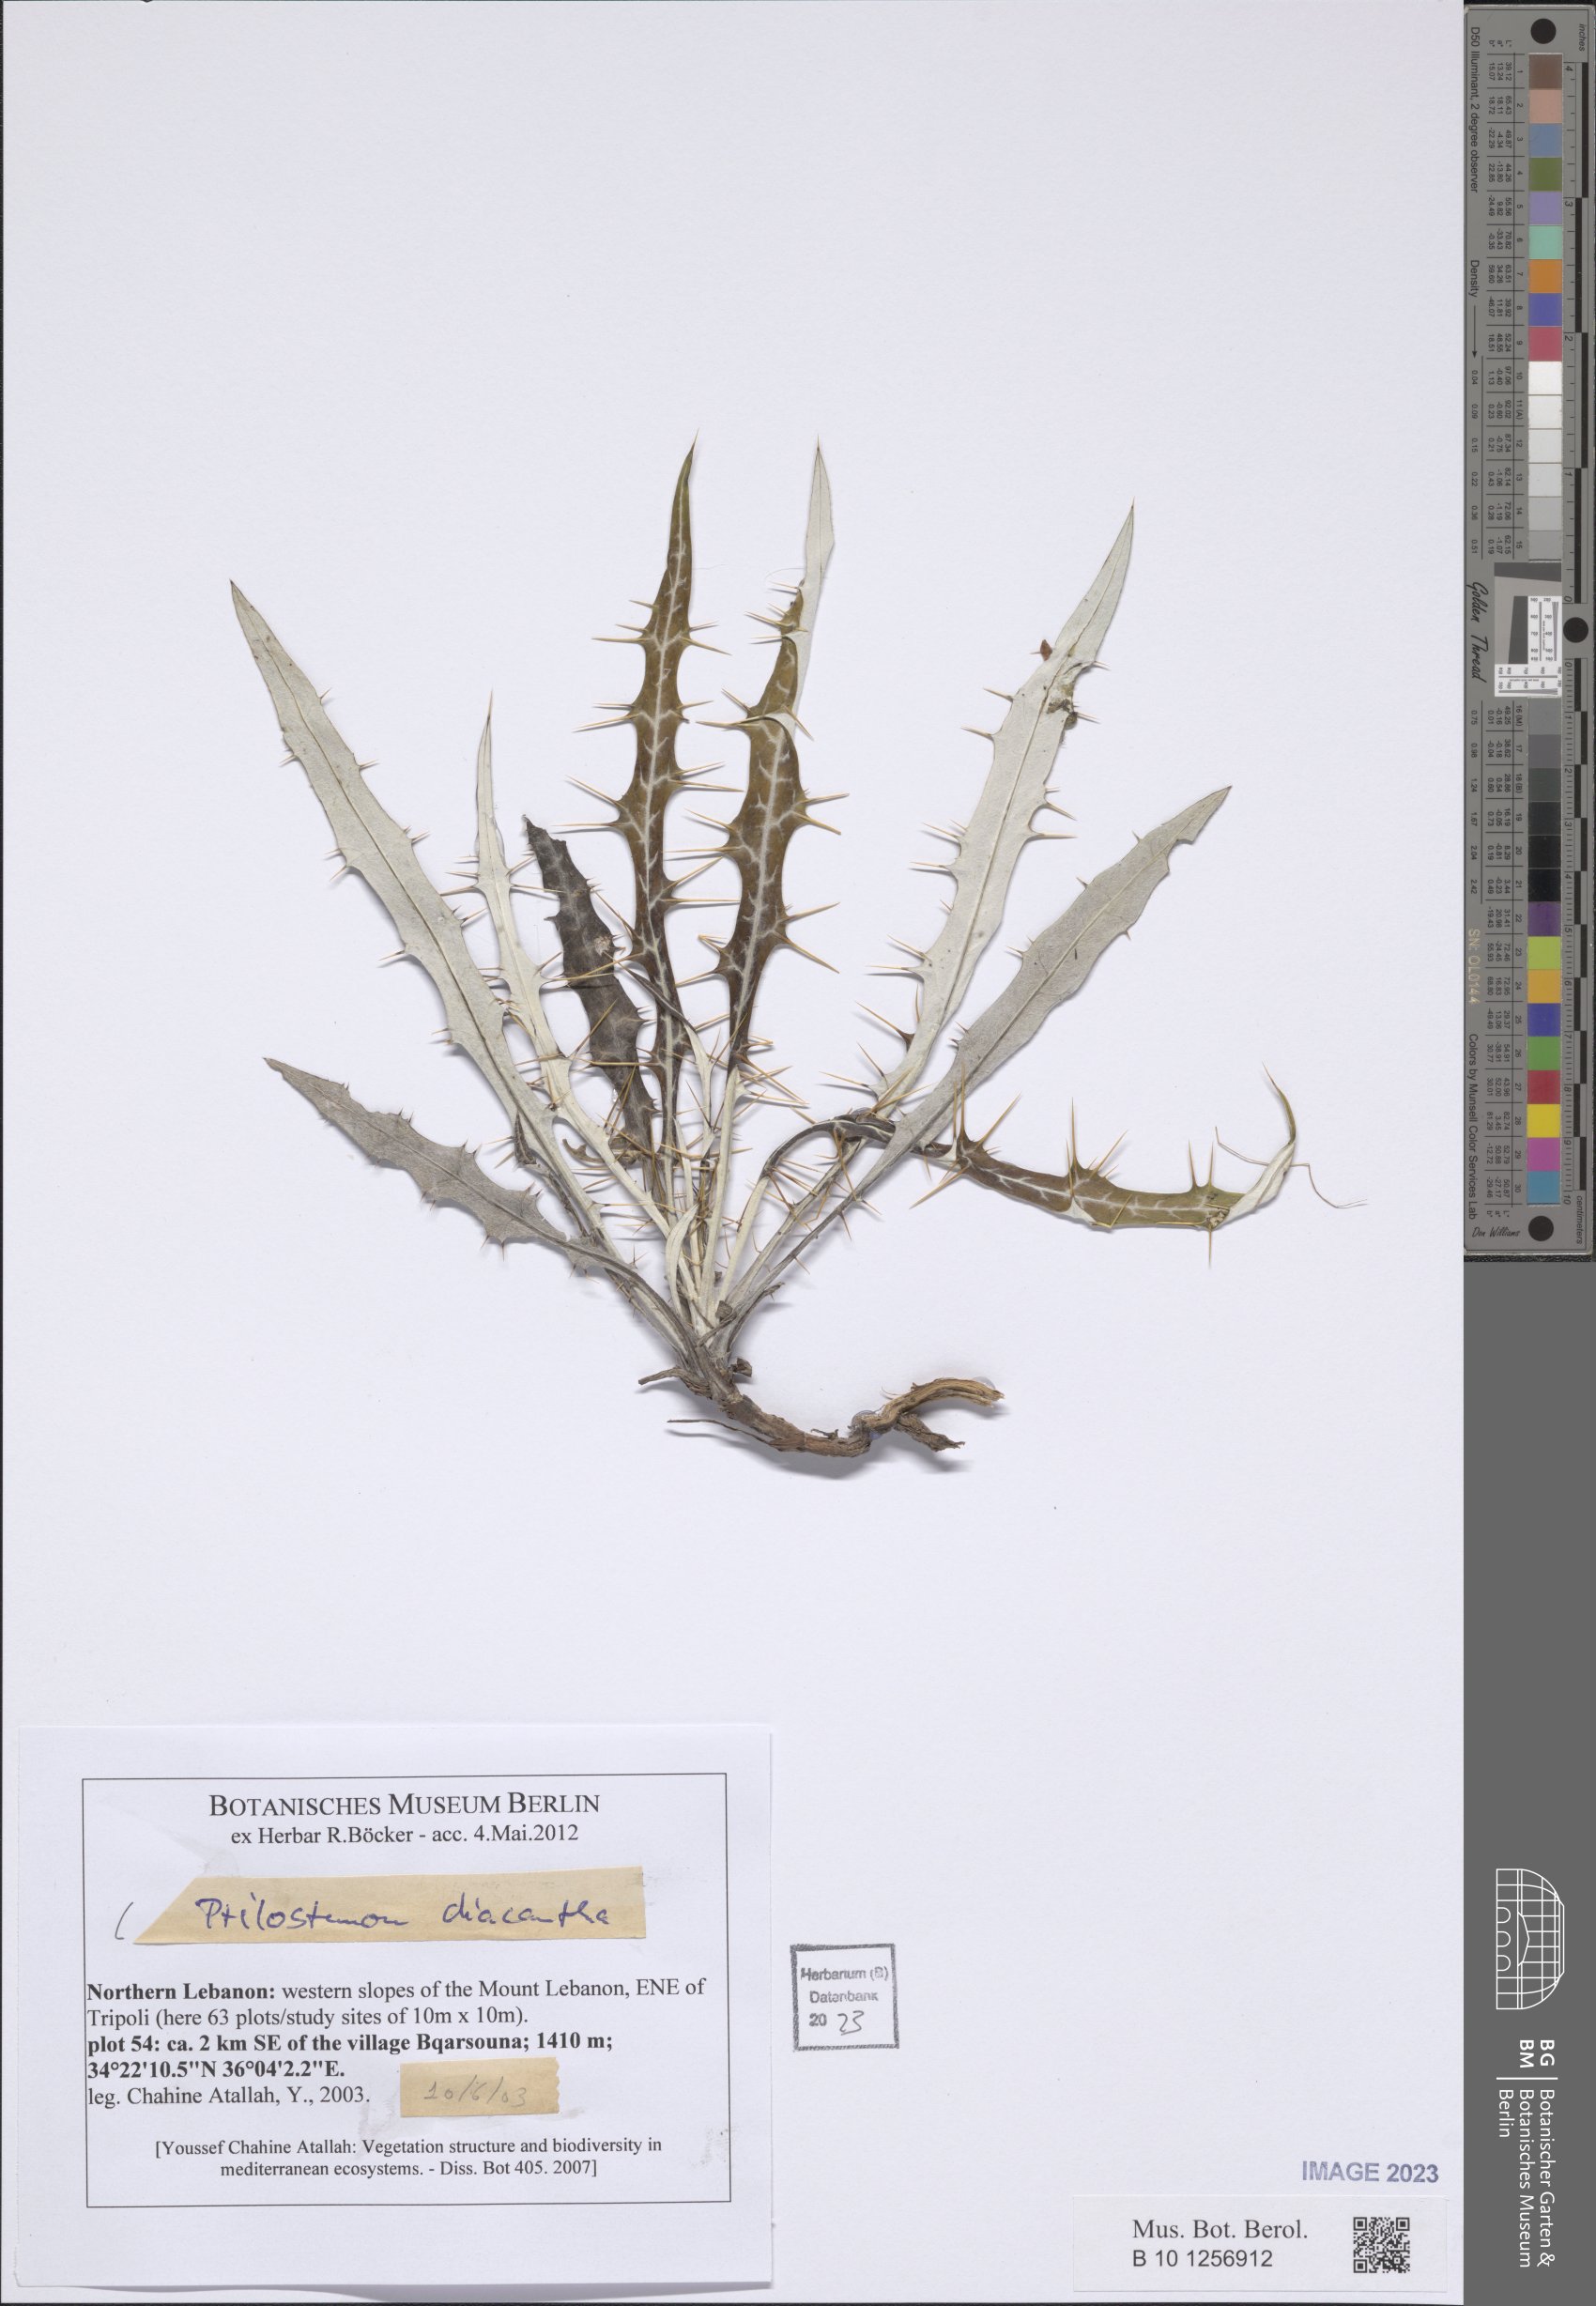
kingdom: Plantae
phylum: Tracheophyta
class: Magnoliopsida
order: Asterales
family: Asteraceae
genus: Ptilostemon
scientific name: Ptilostemon diacanthus
